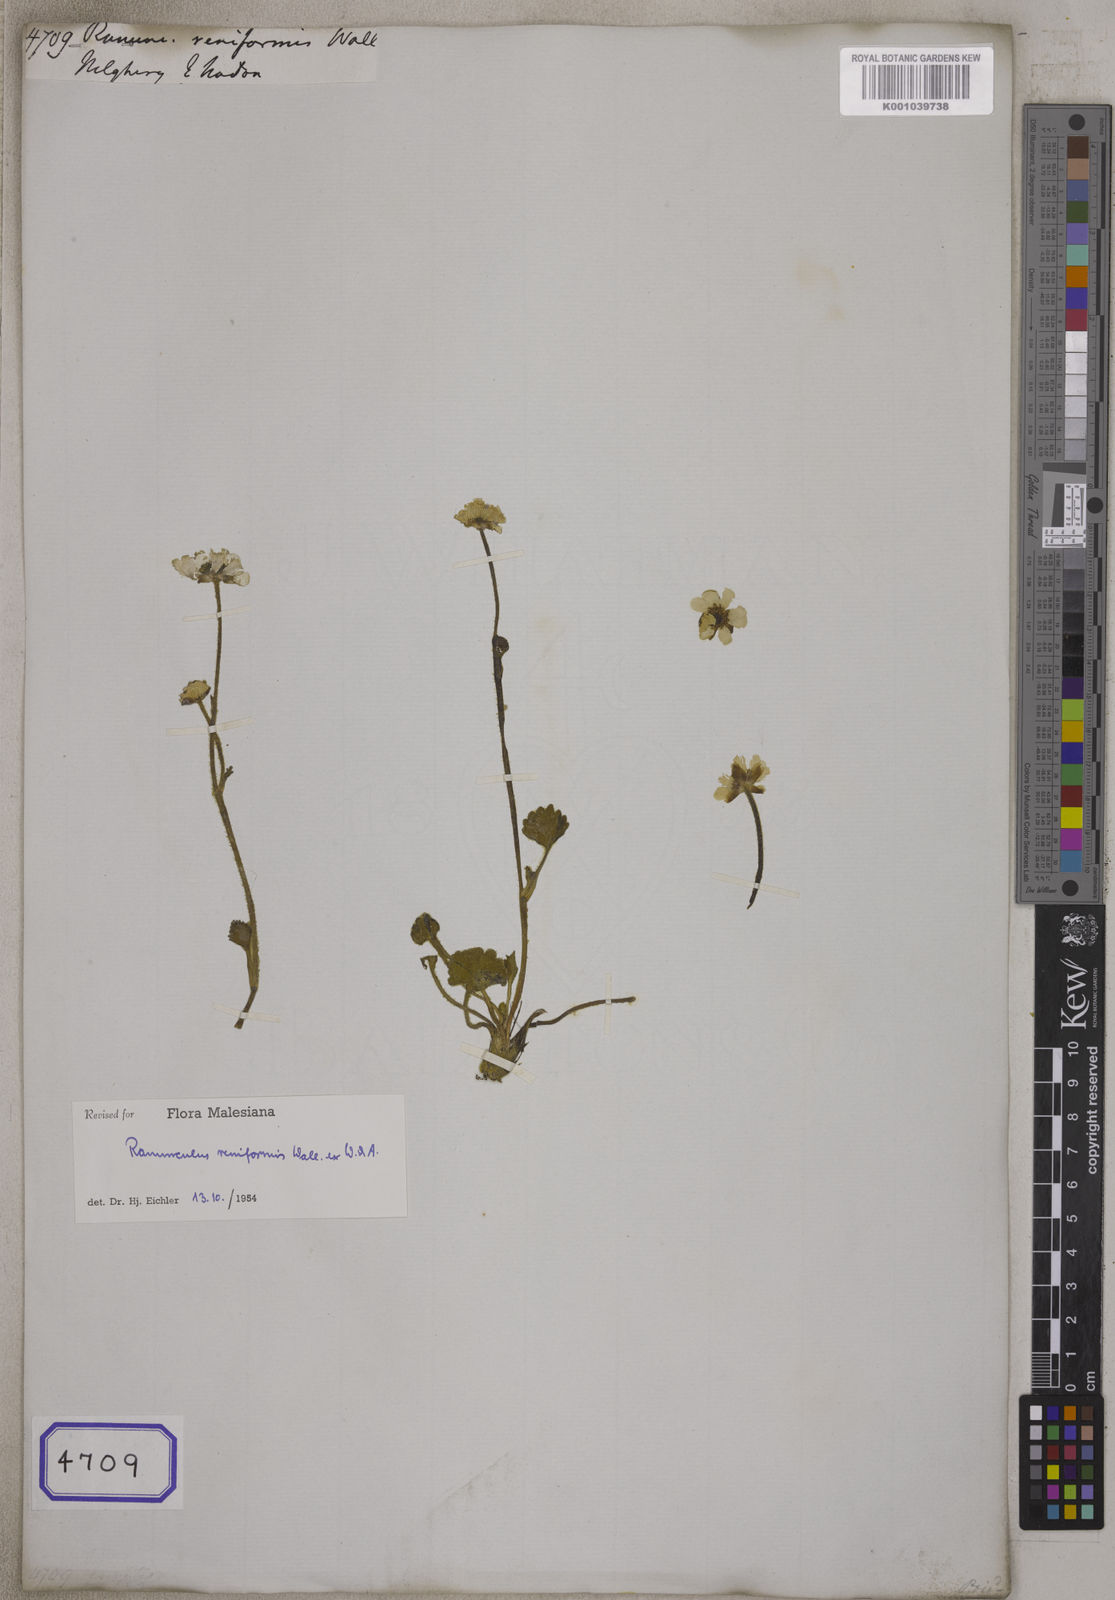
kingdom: Plantae
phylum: Tracheophyta
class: Magnoliopsida
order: Ranunculales
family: Ranunculaceae
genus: Ranunculus
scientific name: Ranunculus
